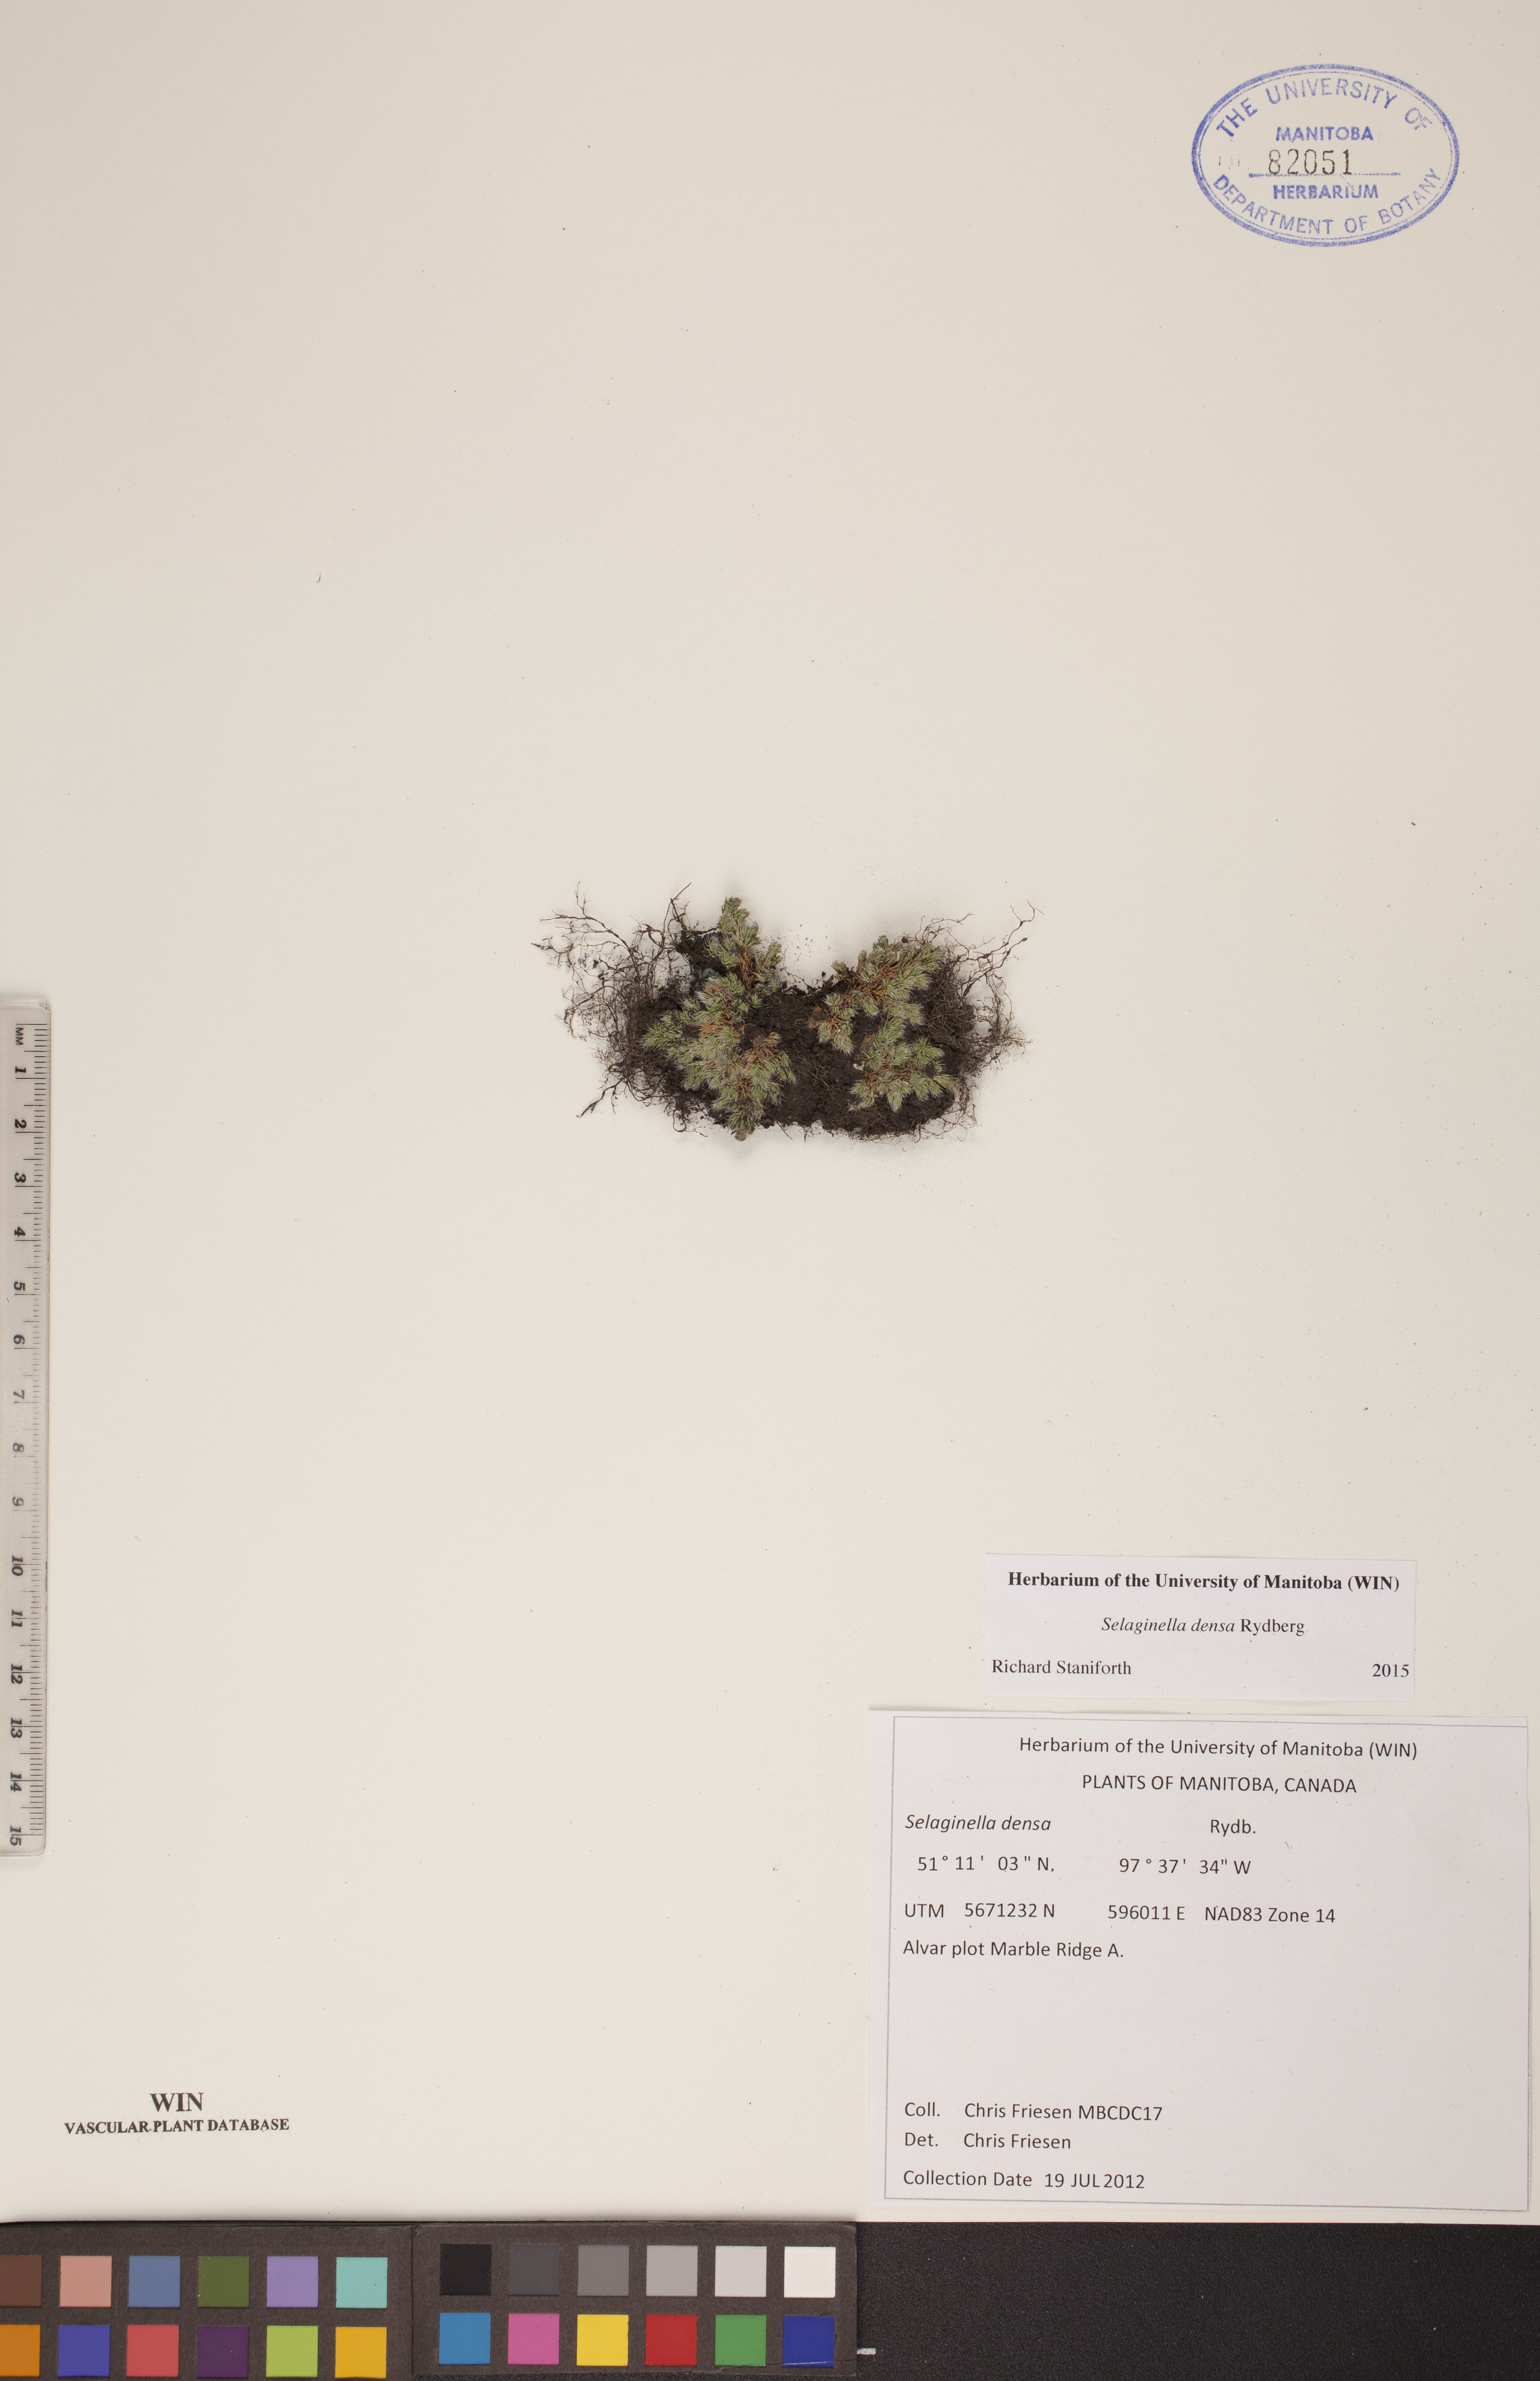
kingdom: Plantae
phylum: Tracheophyta
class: Lycopodiopsida
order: Selaginellales
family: Selaginellaceae
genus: Selaginella
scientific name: Selaginella densa
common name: Mountain spike-moss
